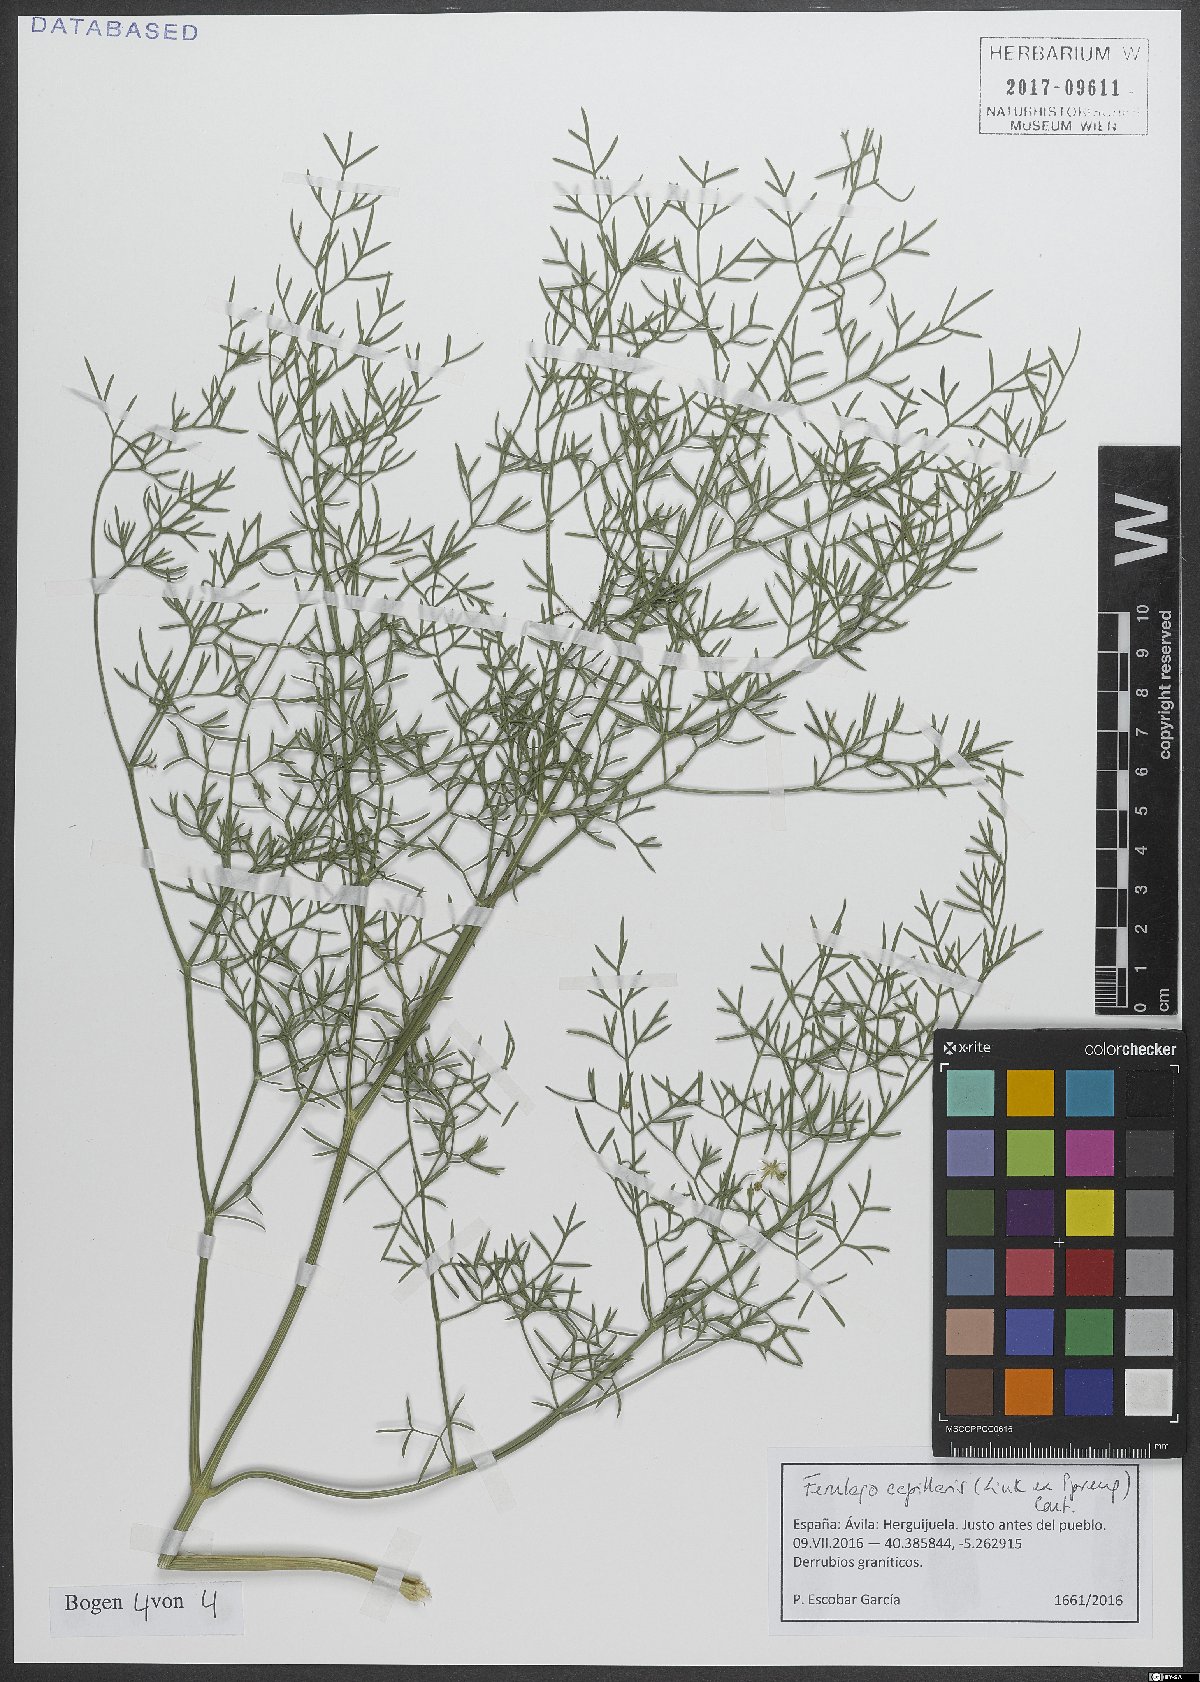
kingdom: Plantae
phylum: Tracheophyta
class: Magnoliopsida
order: Apiales
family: Apiaceae
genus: Ferulago
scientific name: Ferulago capillaris
